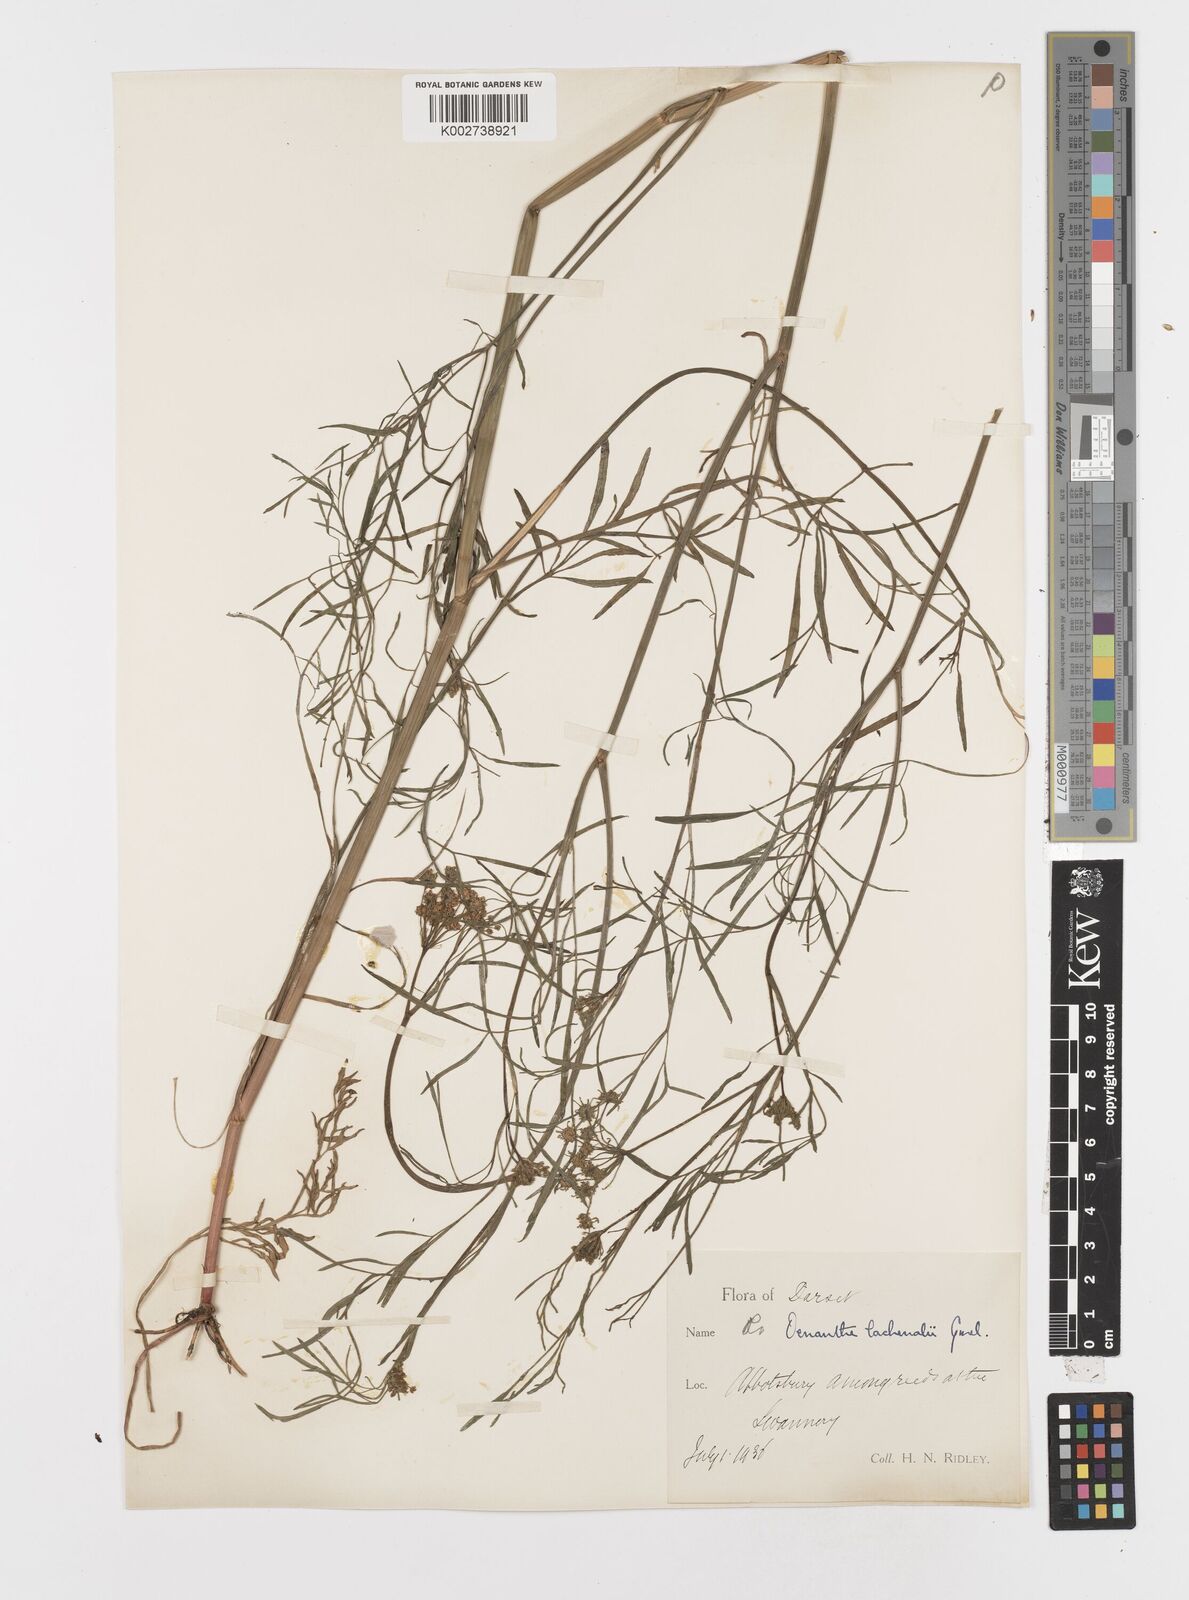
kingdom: Plantae
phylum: Tracheophyta
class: Magnoliopsida
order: Apiales
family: Apiaceae
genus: Oenanthe
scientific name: Oenanthe lachenalii
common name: Parsley water-dropwort
